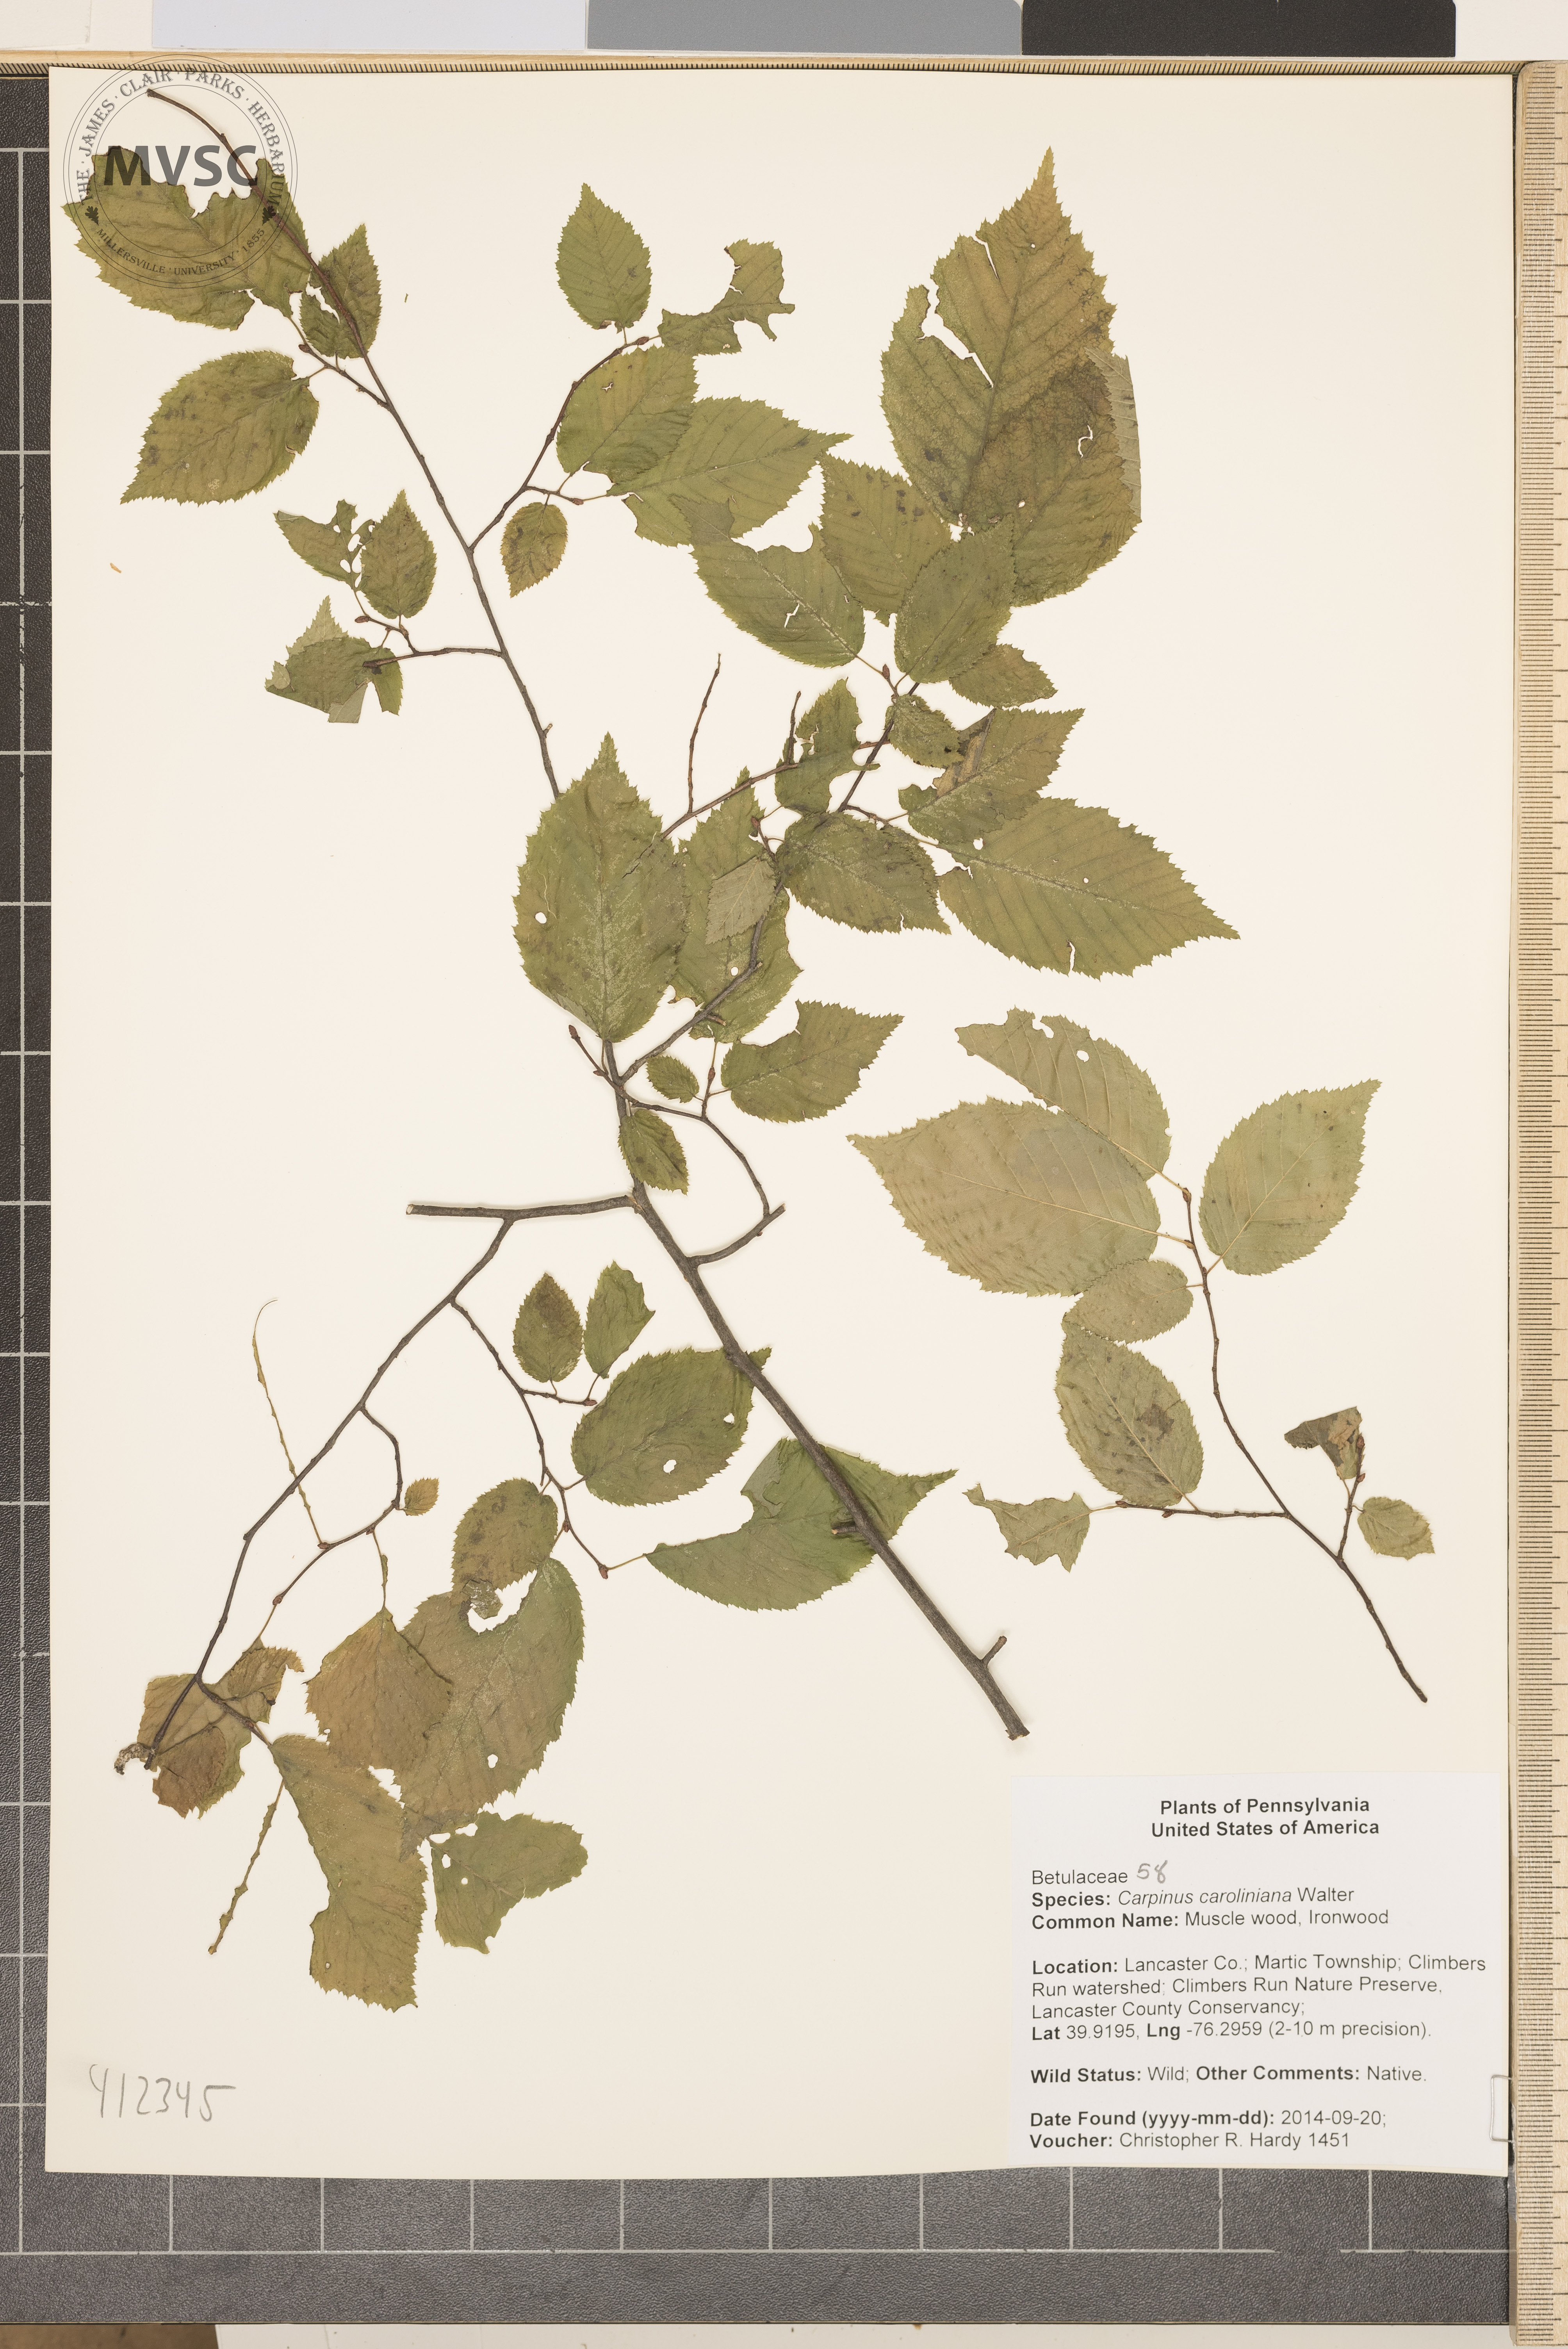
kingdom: Plantae
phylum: Tracheophyta
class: Magnoliopsida
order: Fagales
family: Betulaceae
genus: Carpinus
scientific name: Carpinus caroliniana
